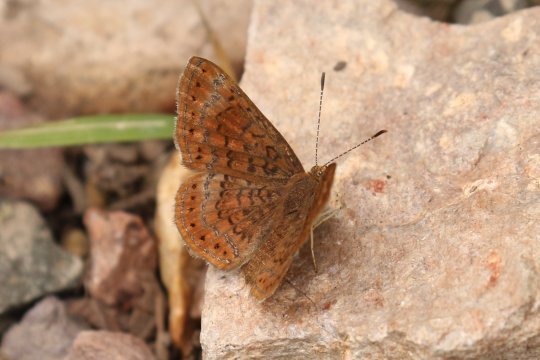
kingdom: Animalia
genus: Calephelis
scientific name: Calephelis arizonensis
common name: Arizona Metalmark
